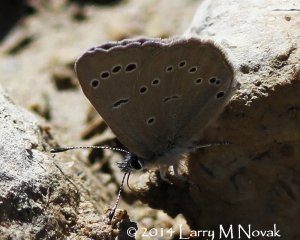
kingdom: Animalia
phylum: Arthropoda
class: Insecta
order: Lepidoptera
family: Lycaenidae
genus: Glaucopsyche
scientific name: Glaucopsyche lygdamus
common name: Silvery Blue
